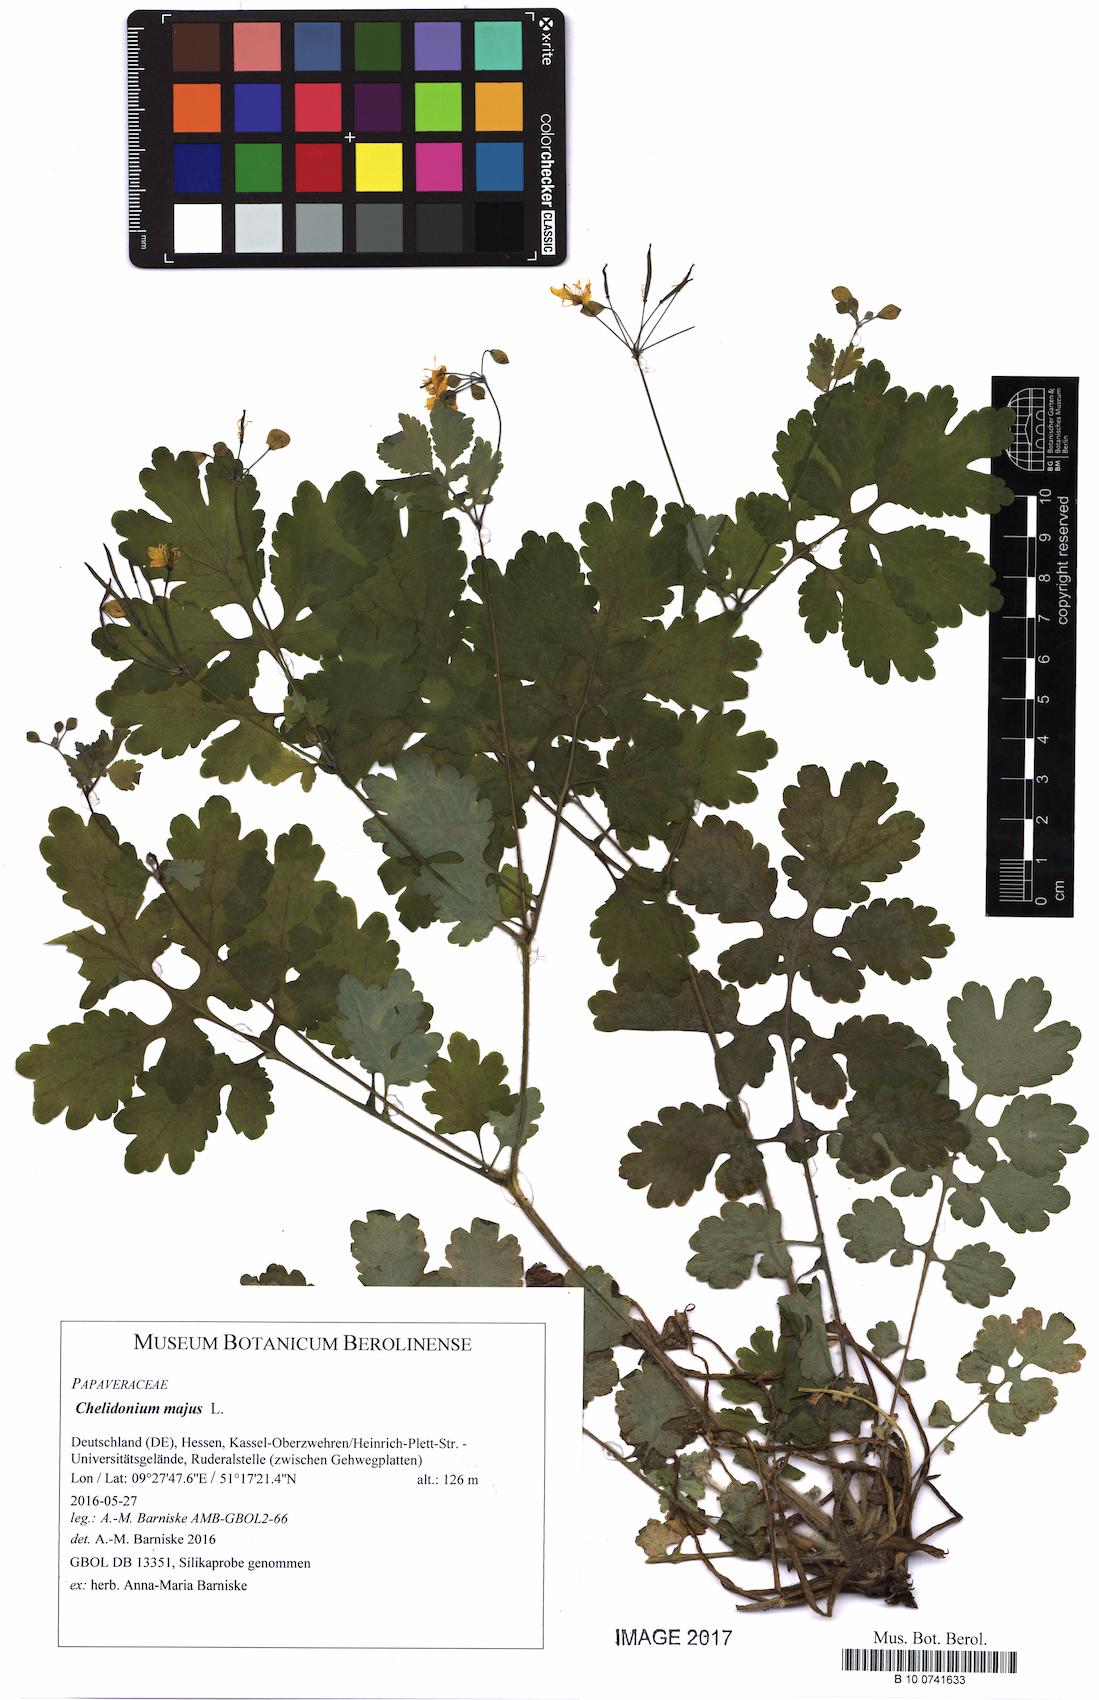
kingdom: Plantae
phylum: Tracheophyta
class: Magnoliopsida
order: Ranunculales
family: Papaveraceae
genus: Chelidonium
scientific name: Chelidonium majus
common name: Greater celandine
